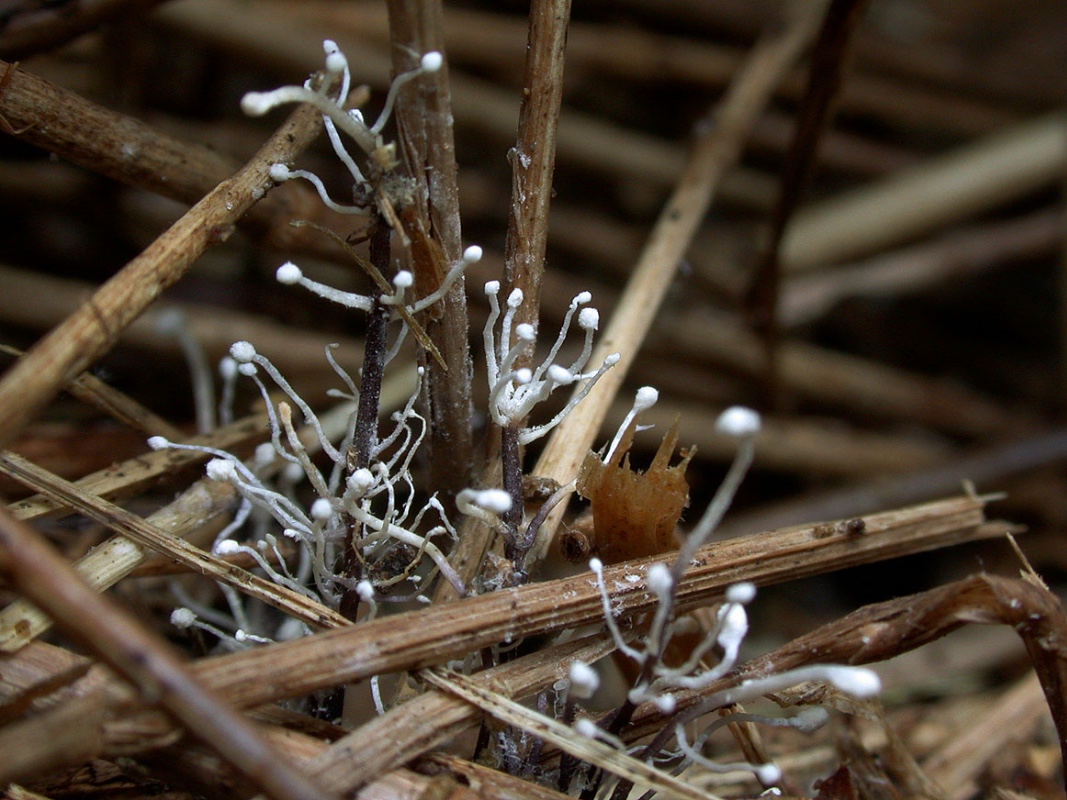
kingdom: Fungi
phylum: Ascomycota
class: Sordariomycetes
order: Hypocreales
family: Ophiocordycipitaceae
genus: Ophiocordyceps
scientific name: Ophiocordyceps entomorrhiza
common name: grå snyltekølle
